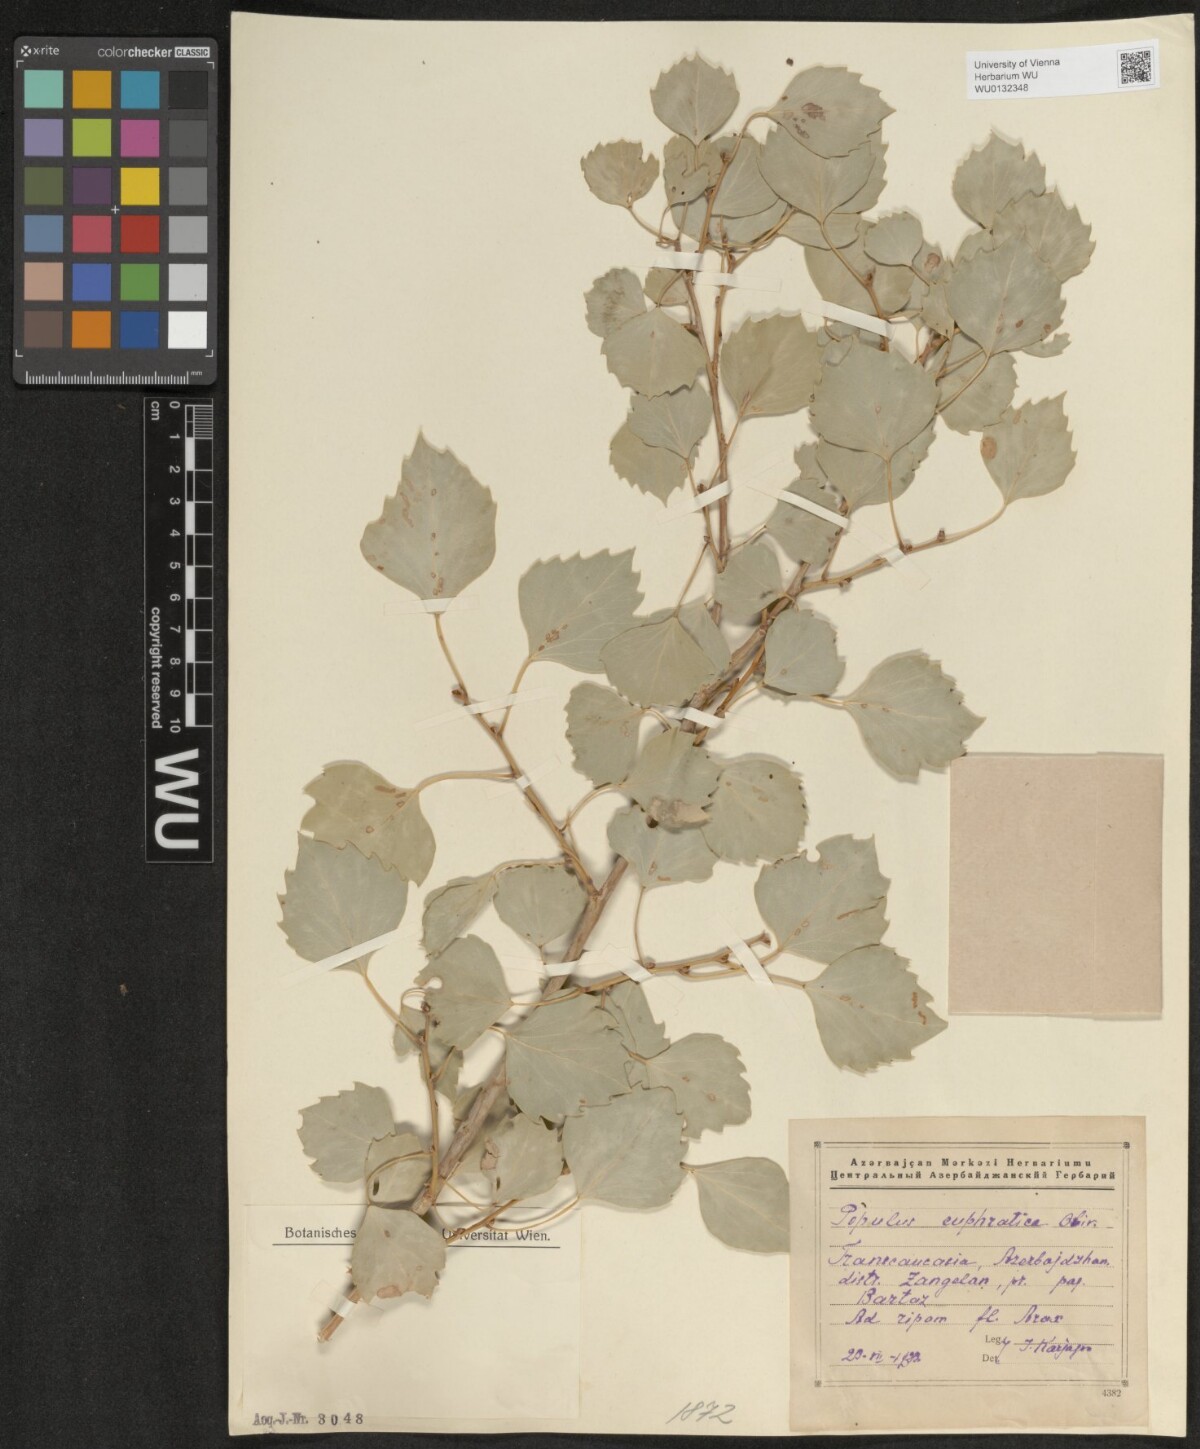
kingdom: Plantae
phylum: Tracheophyta
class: Magnoliopsida
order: Malpighiales
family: Salicaceae
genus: Populus
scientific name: Populus euphratica
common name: Euphrates poplar
